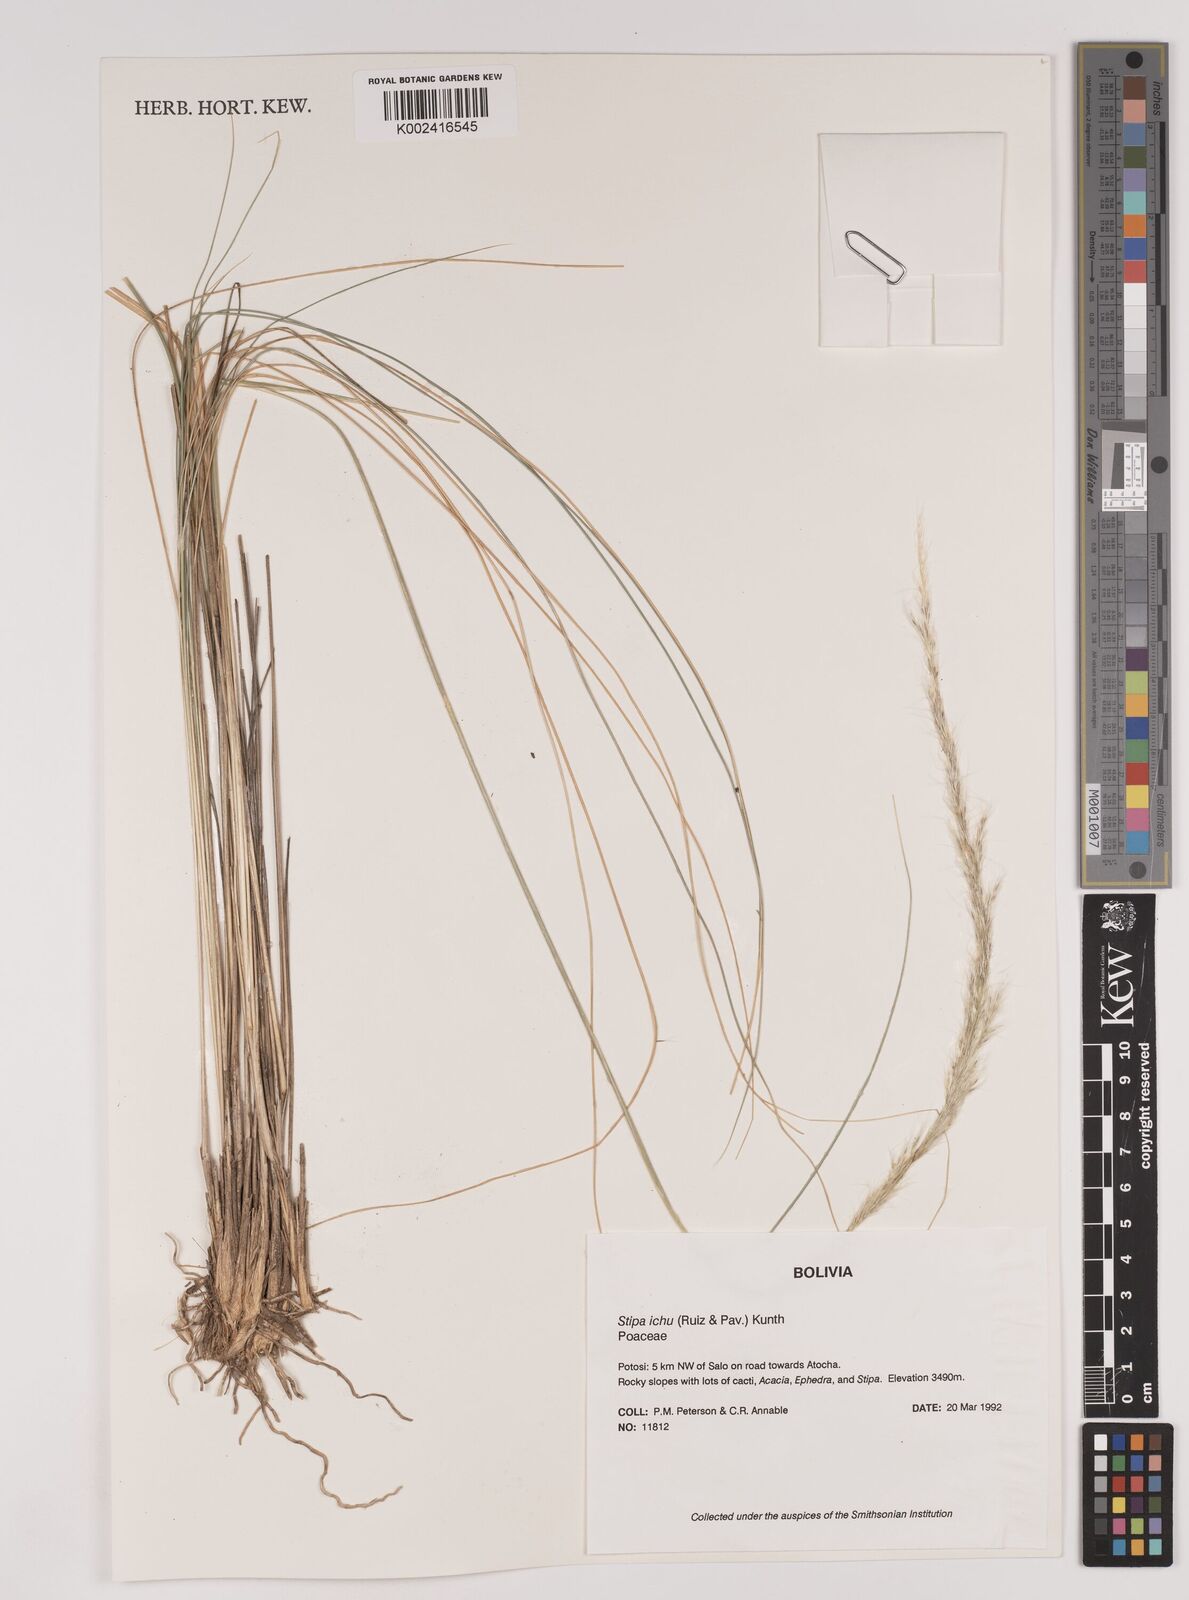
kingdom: Plantae
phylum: Tracheophyta
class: Liliopsida
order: Poales
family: Poaceae
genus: Jarava
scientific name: Jarava ichu
